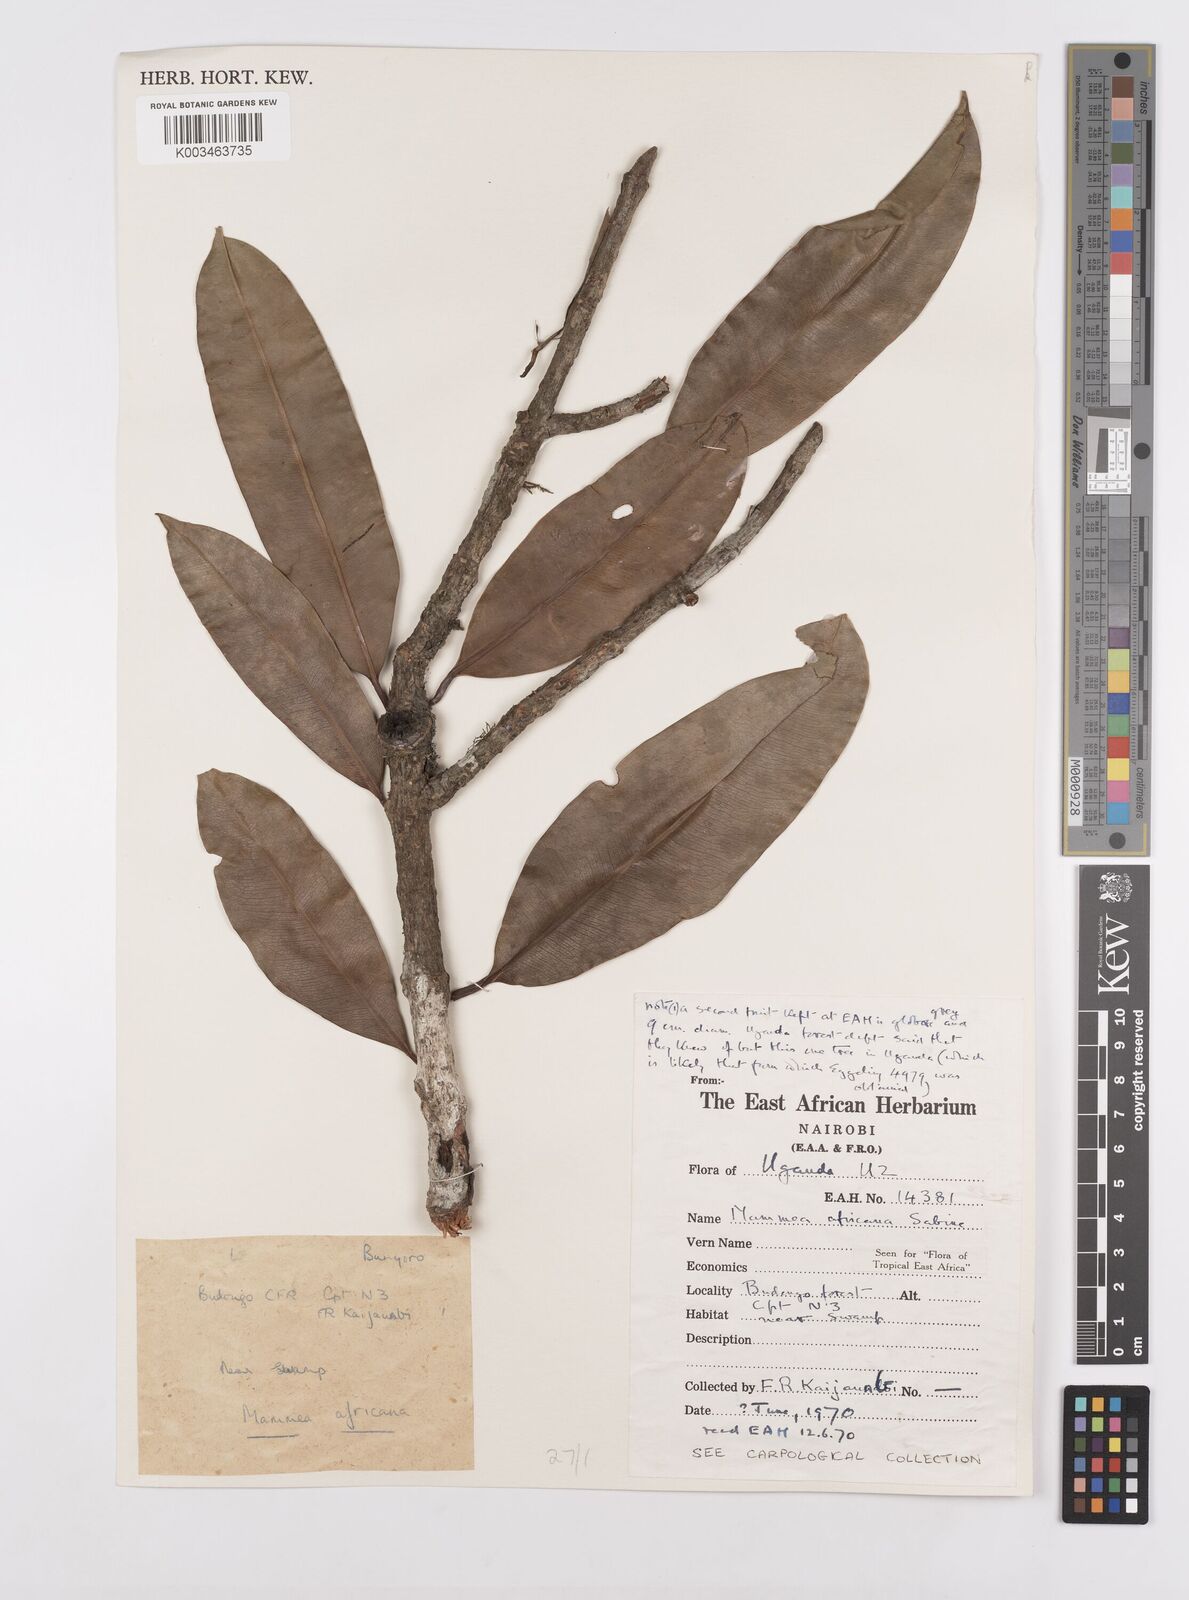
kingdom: Plantae
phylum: Tracheophyta
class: Magnoliopsida
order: Malpighiales
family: Calophyllaceae
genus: Mammea
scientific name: Mammea africana
